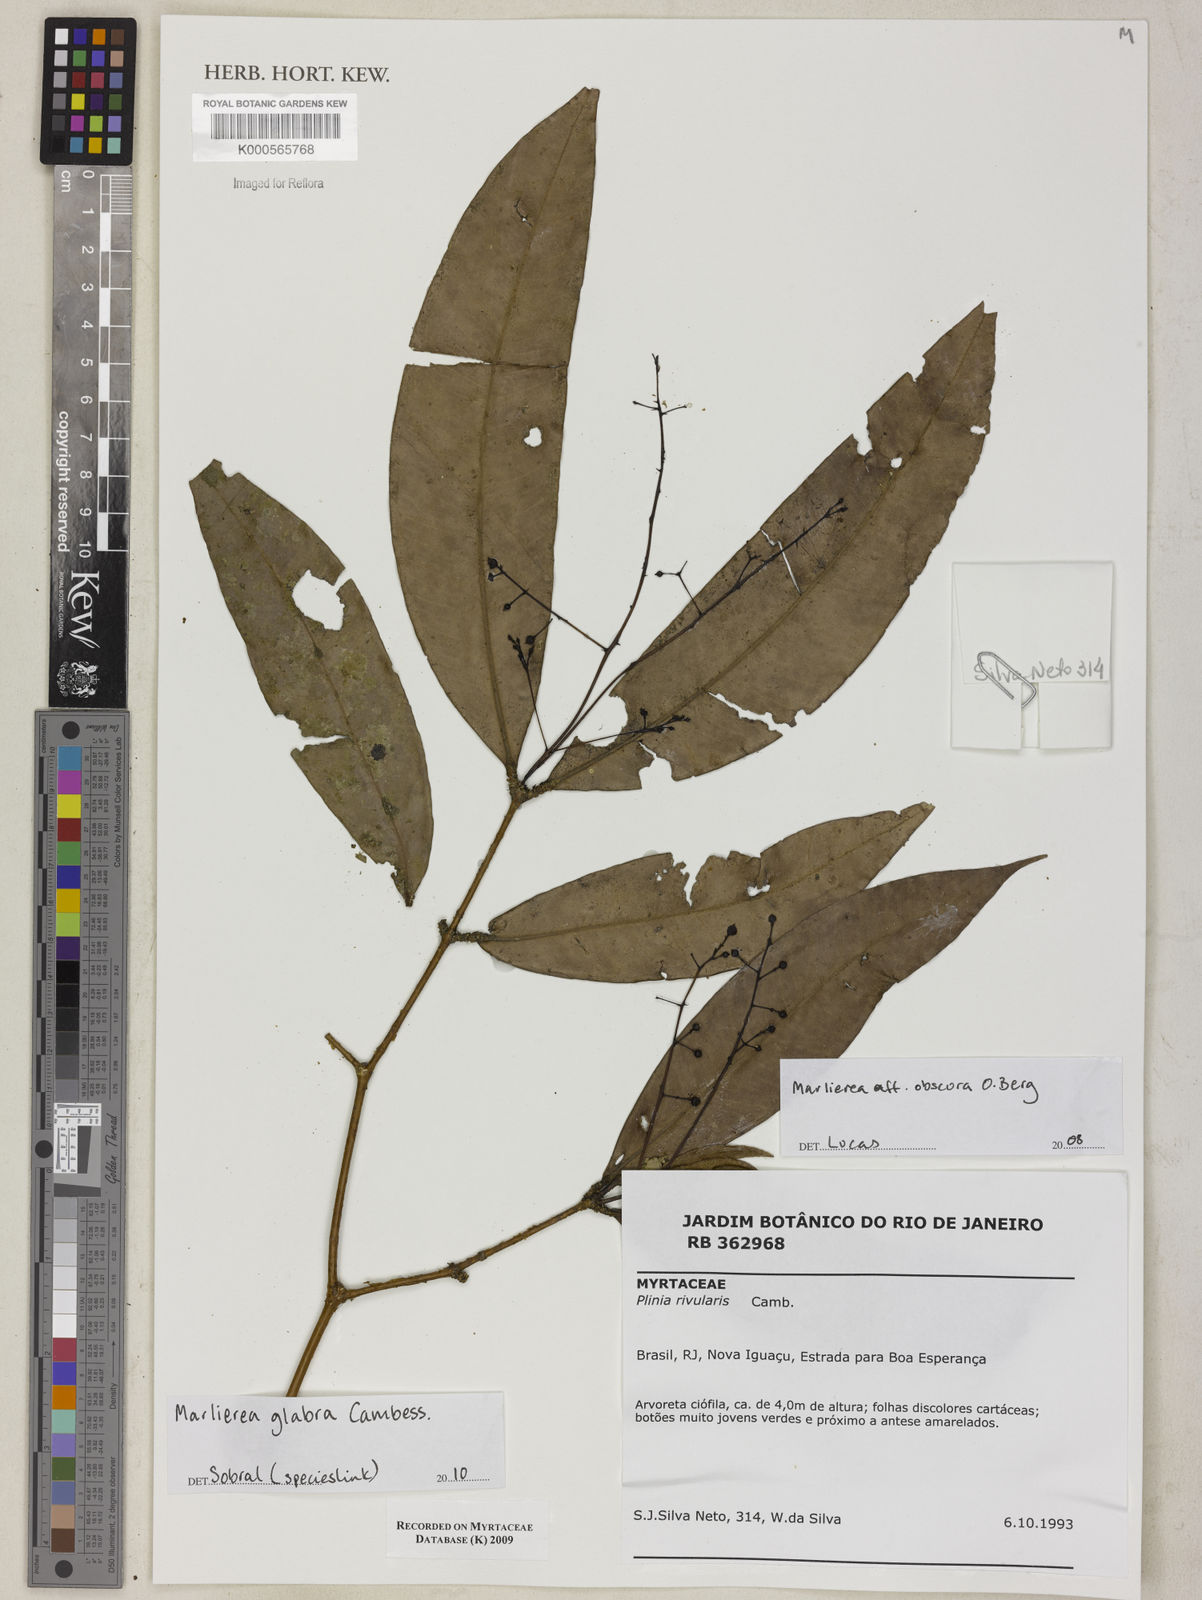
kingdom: Plantae
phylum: Tracheophyta
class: Magnoliopsida
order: Myrtales
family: Myrtaceae
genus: Myrcia
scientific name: Myrcia neoobscura
